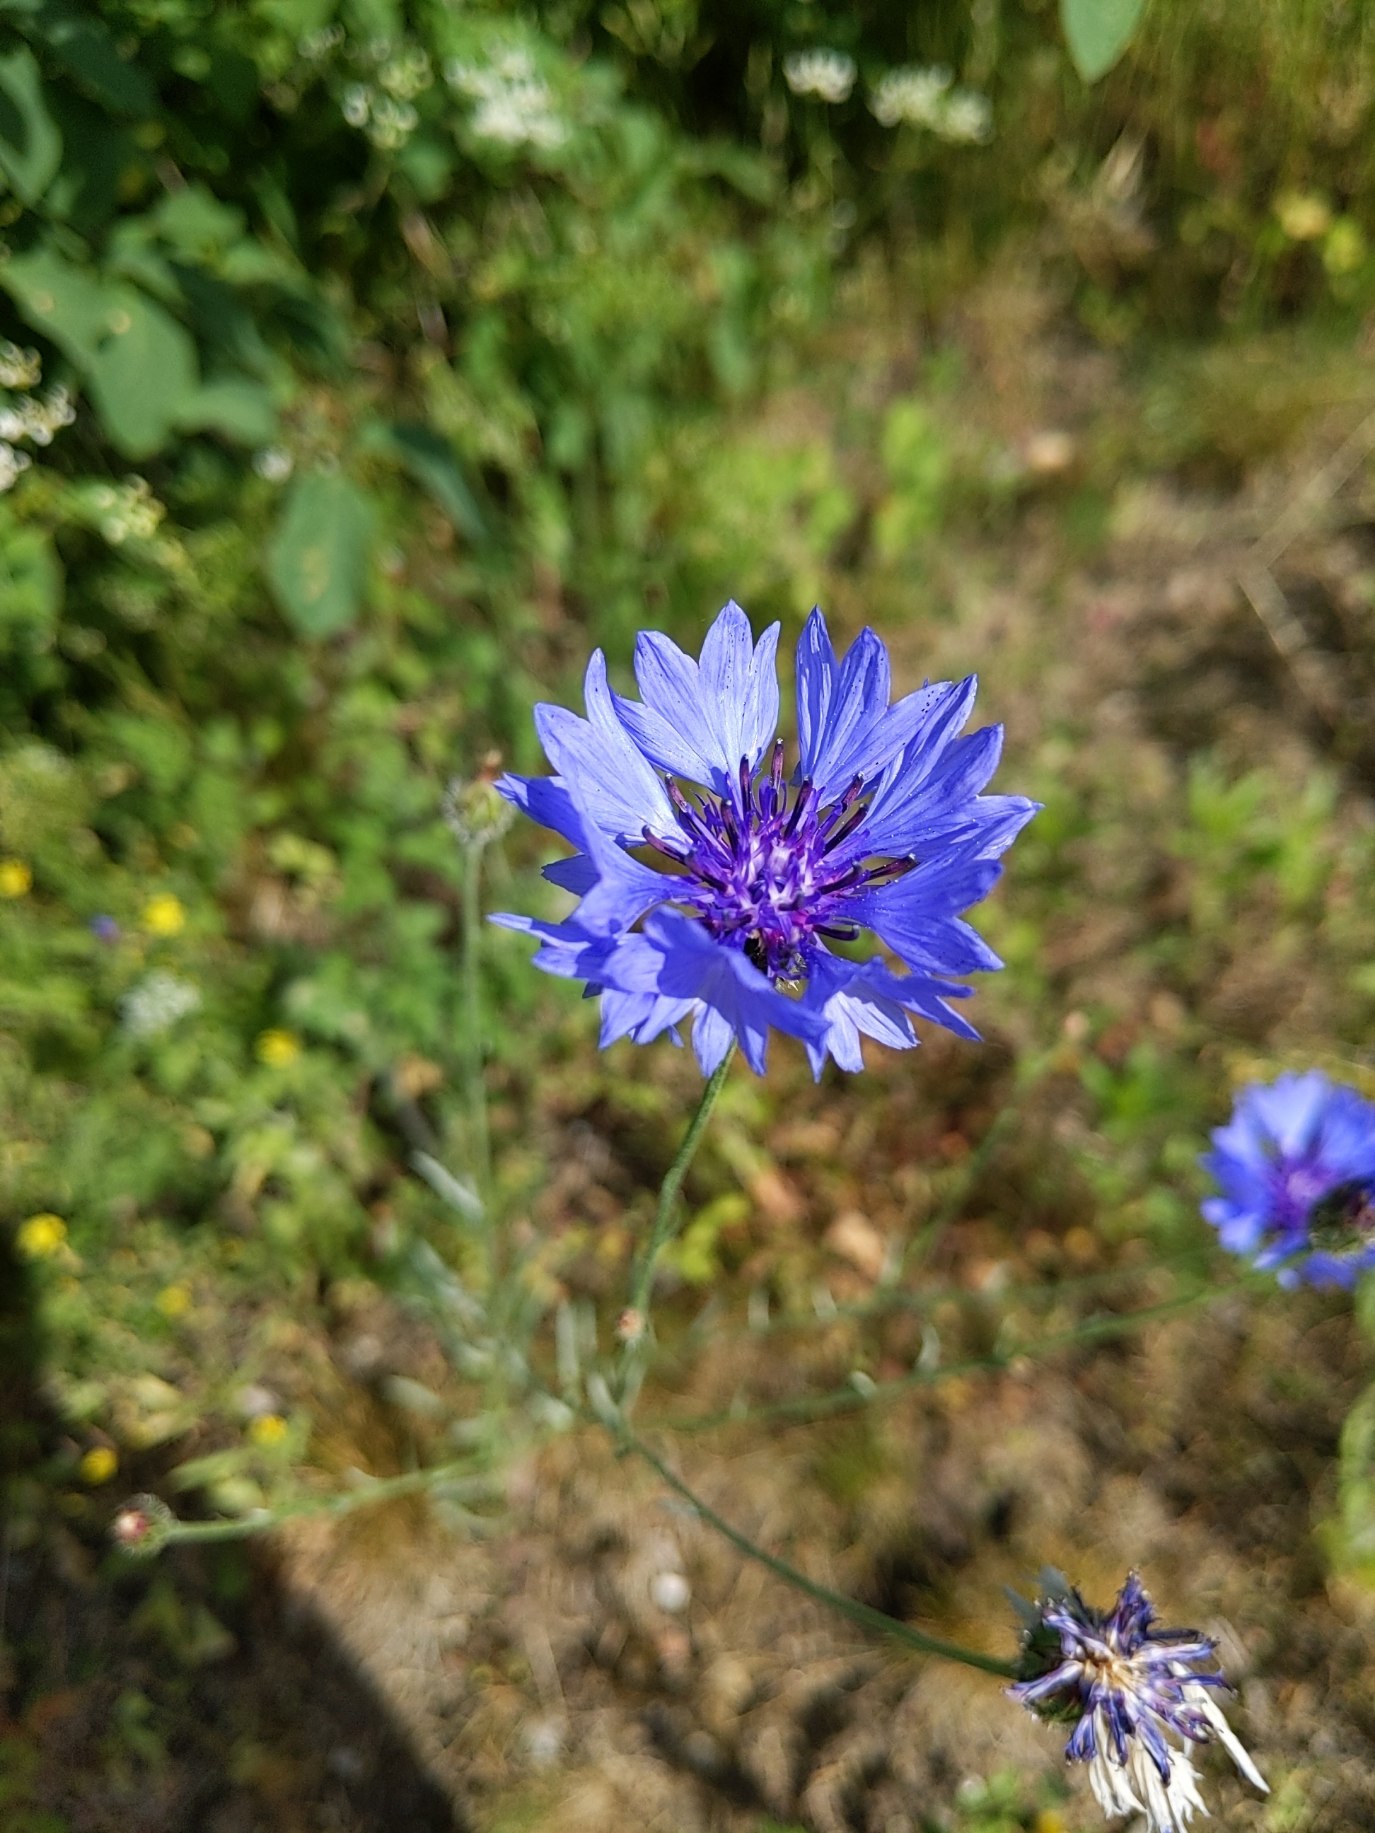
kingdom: Plantae
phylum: Tracheophyta
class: Magnoliopsida
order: Asterales
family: Asteraceae
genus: Centaurea
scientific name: Centaurea cyanus
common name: Kornblomst
